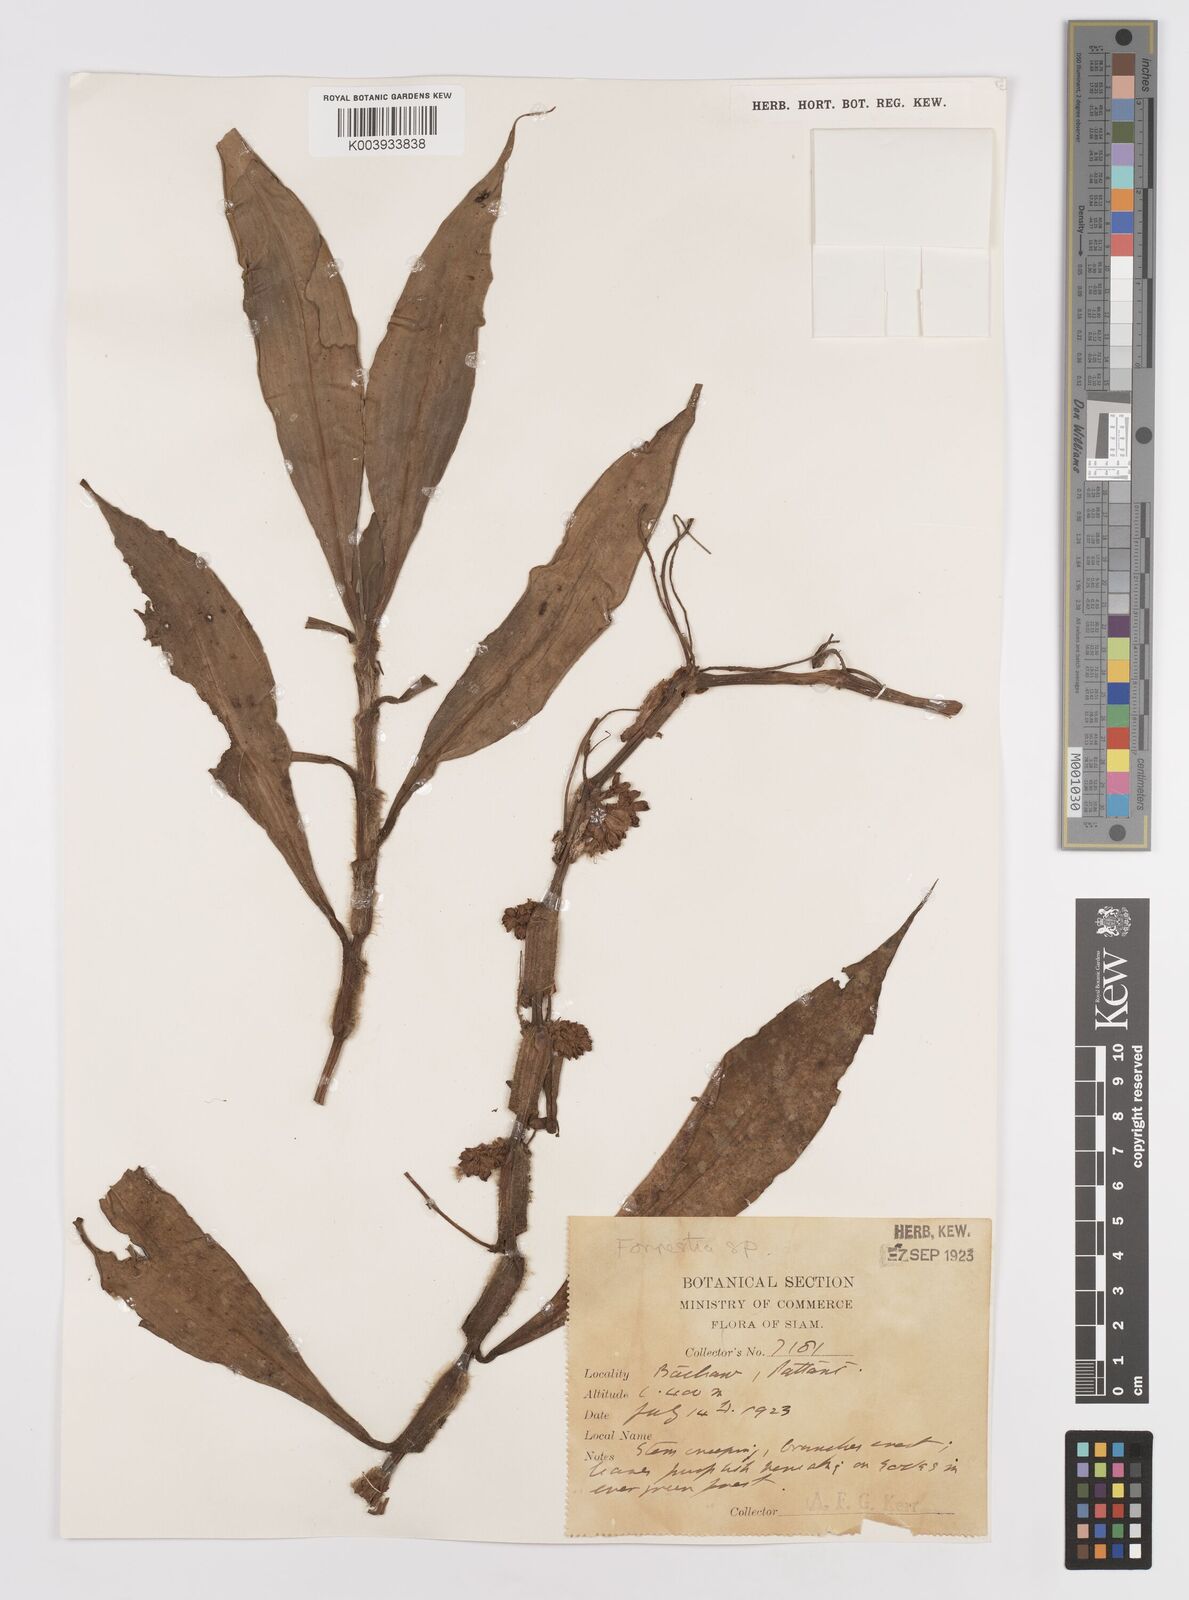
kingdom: Plantae
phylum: Tracheophyta
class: Liliopsida
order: Commelinales
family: Commelinaceae
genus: Amischotolype
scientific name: Amischotolype glabrata
